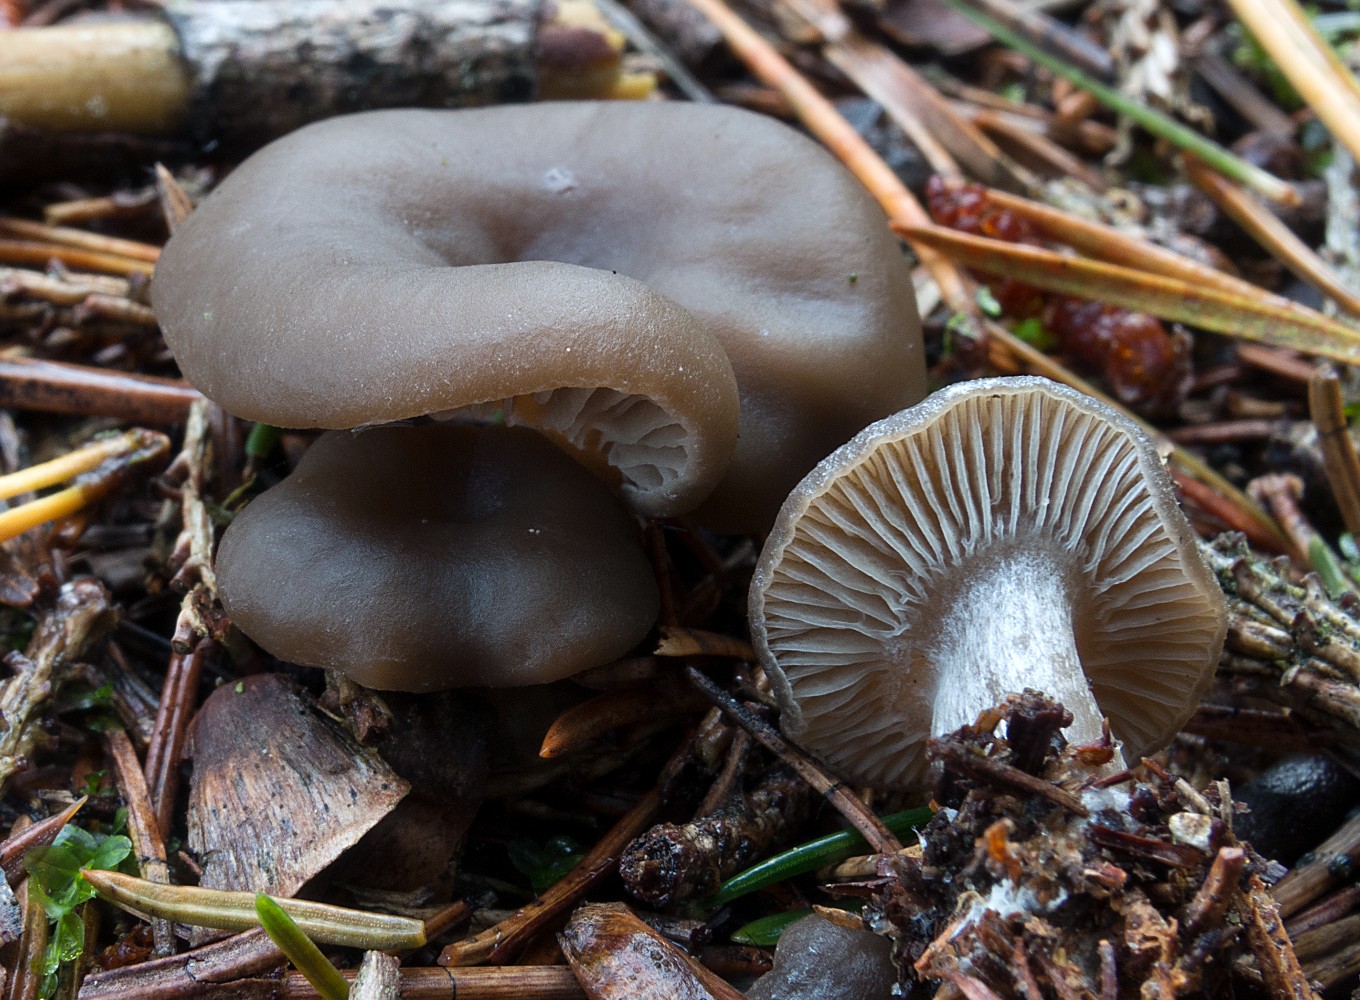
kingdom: Fungi
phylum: Basidiomycota
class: Agaricomycetes
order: Agaricales
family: Lyophyllaceae
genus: Tephrocybe
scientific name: Tephrocybe confusa
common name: trist gråblad
